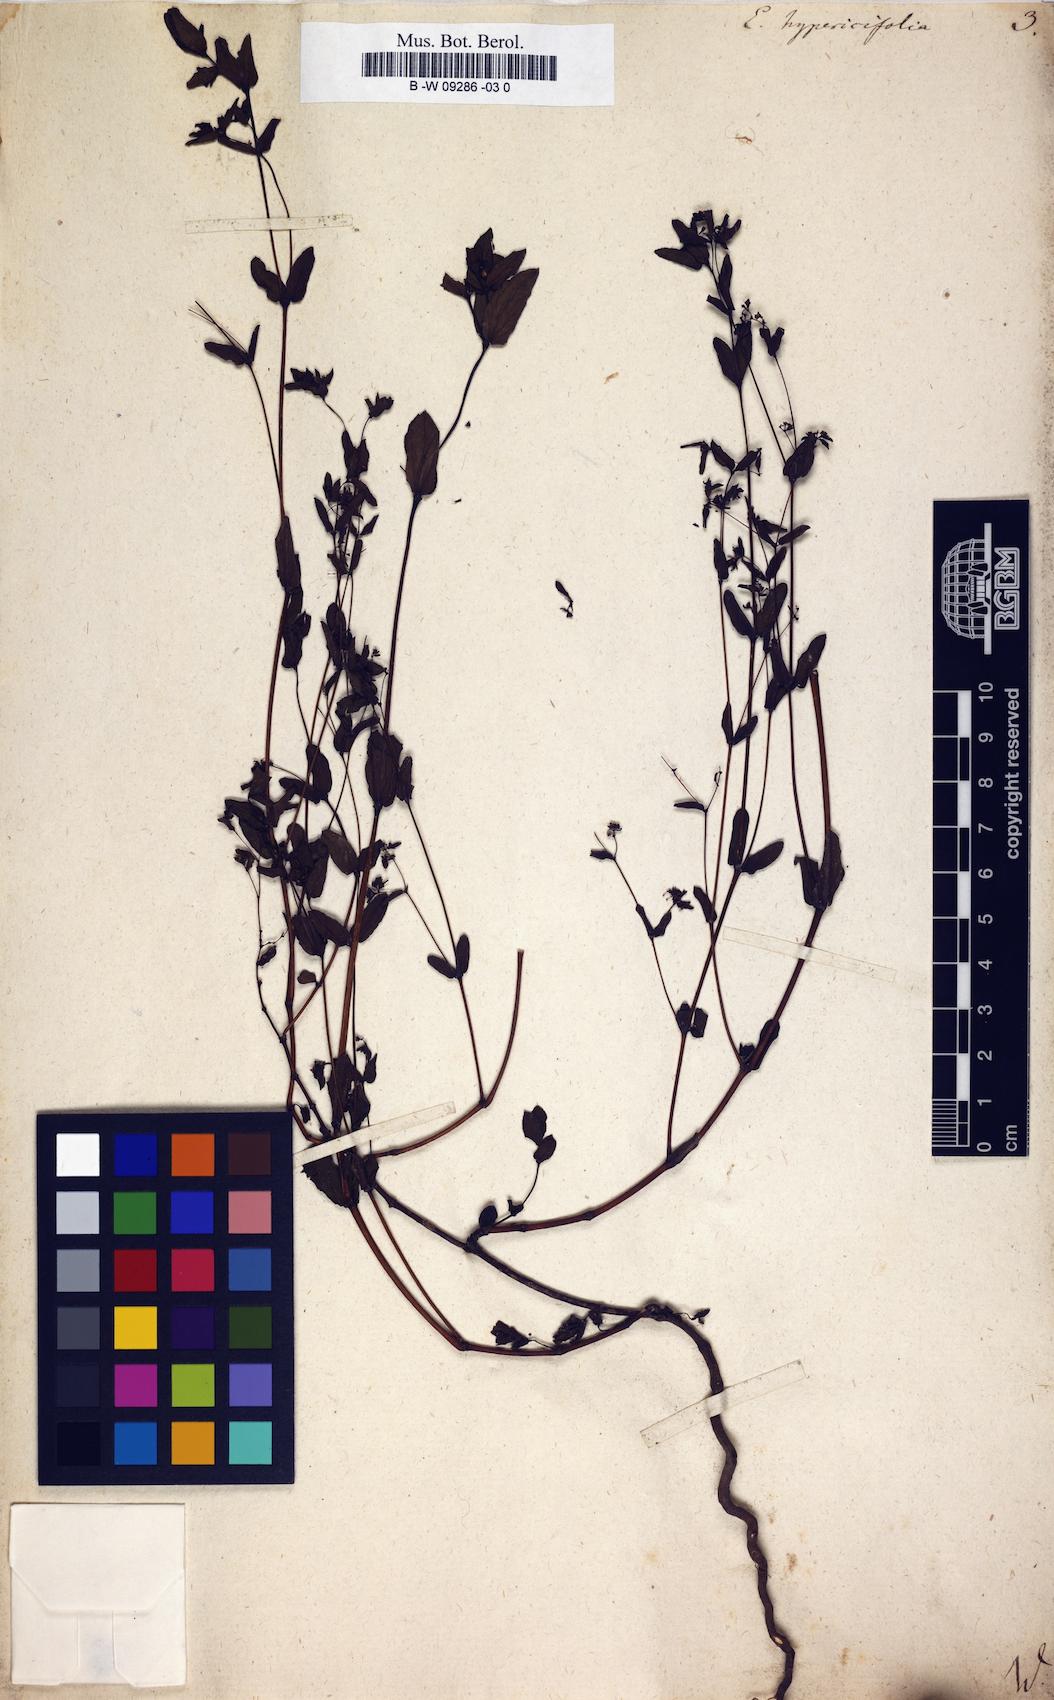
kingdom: Plantae
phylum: Tracheophyta
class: Magnoliopsida
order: Malpighiales
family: Euphorbiaceae
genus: Euphorbia
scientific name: Euphorbia hypericifolia
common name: Graceful sandmat
